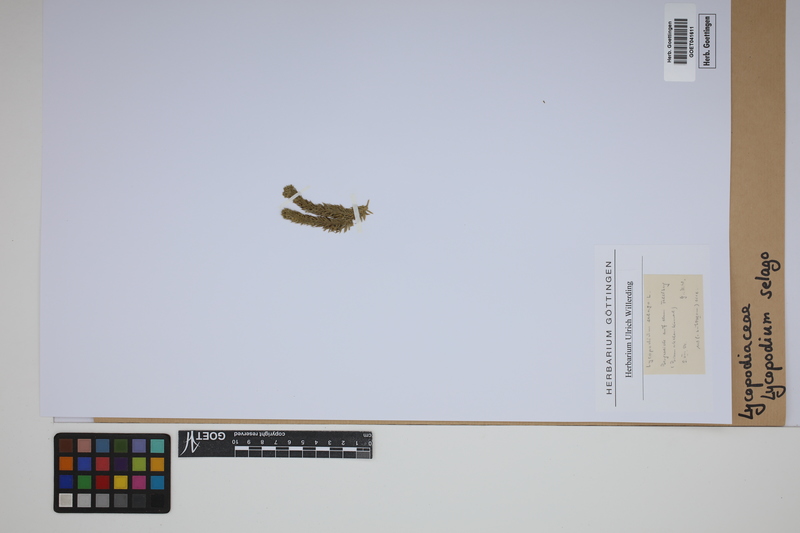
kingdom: Plantae
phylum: Tracheophyta
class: Lycopodiopsida
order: Lycopodiales
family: Lycopodiaceae
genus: Huperzia
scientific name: Huperzia selago
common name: Northern firmoss
